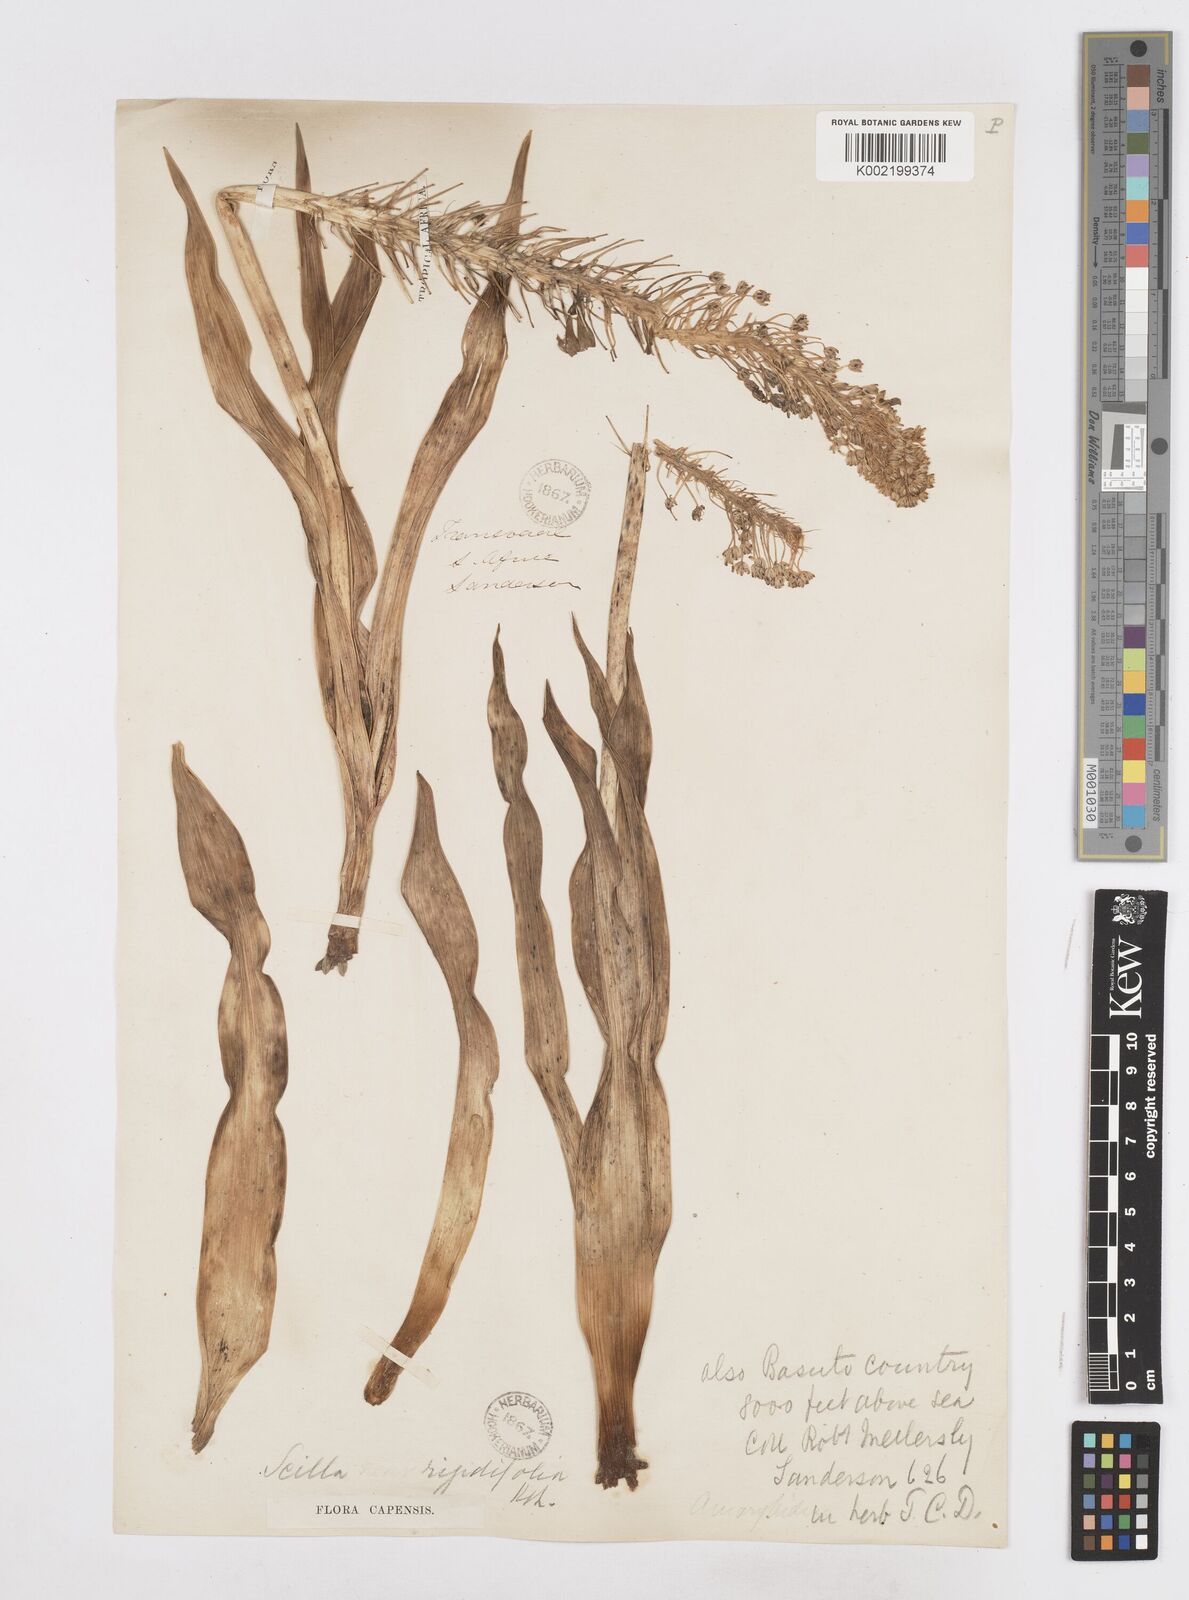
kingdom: Plantae
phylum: Tracheophyta
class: Liliopsida
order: Asparagales
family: Asparagaceae
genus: Schizocarphus
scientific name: Schizocarphus nervosus
